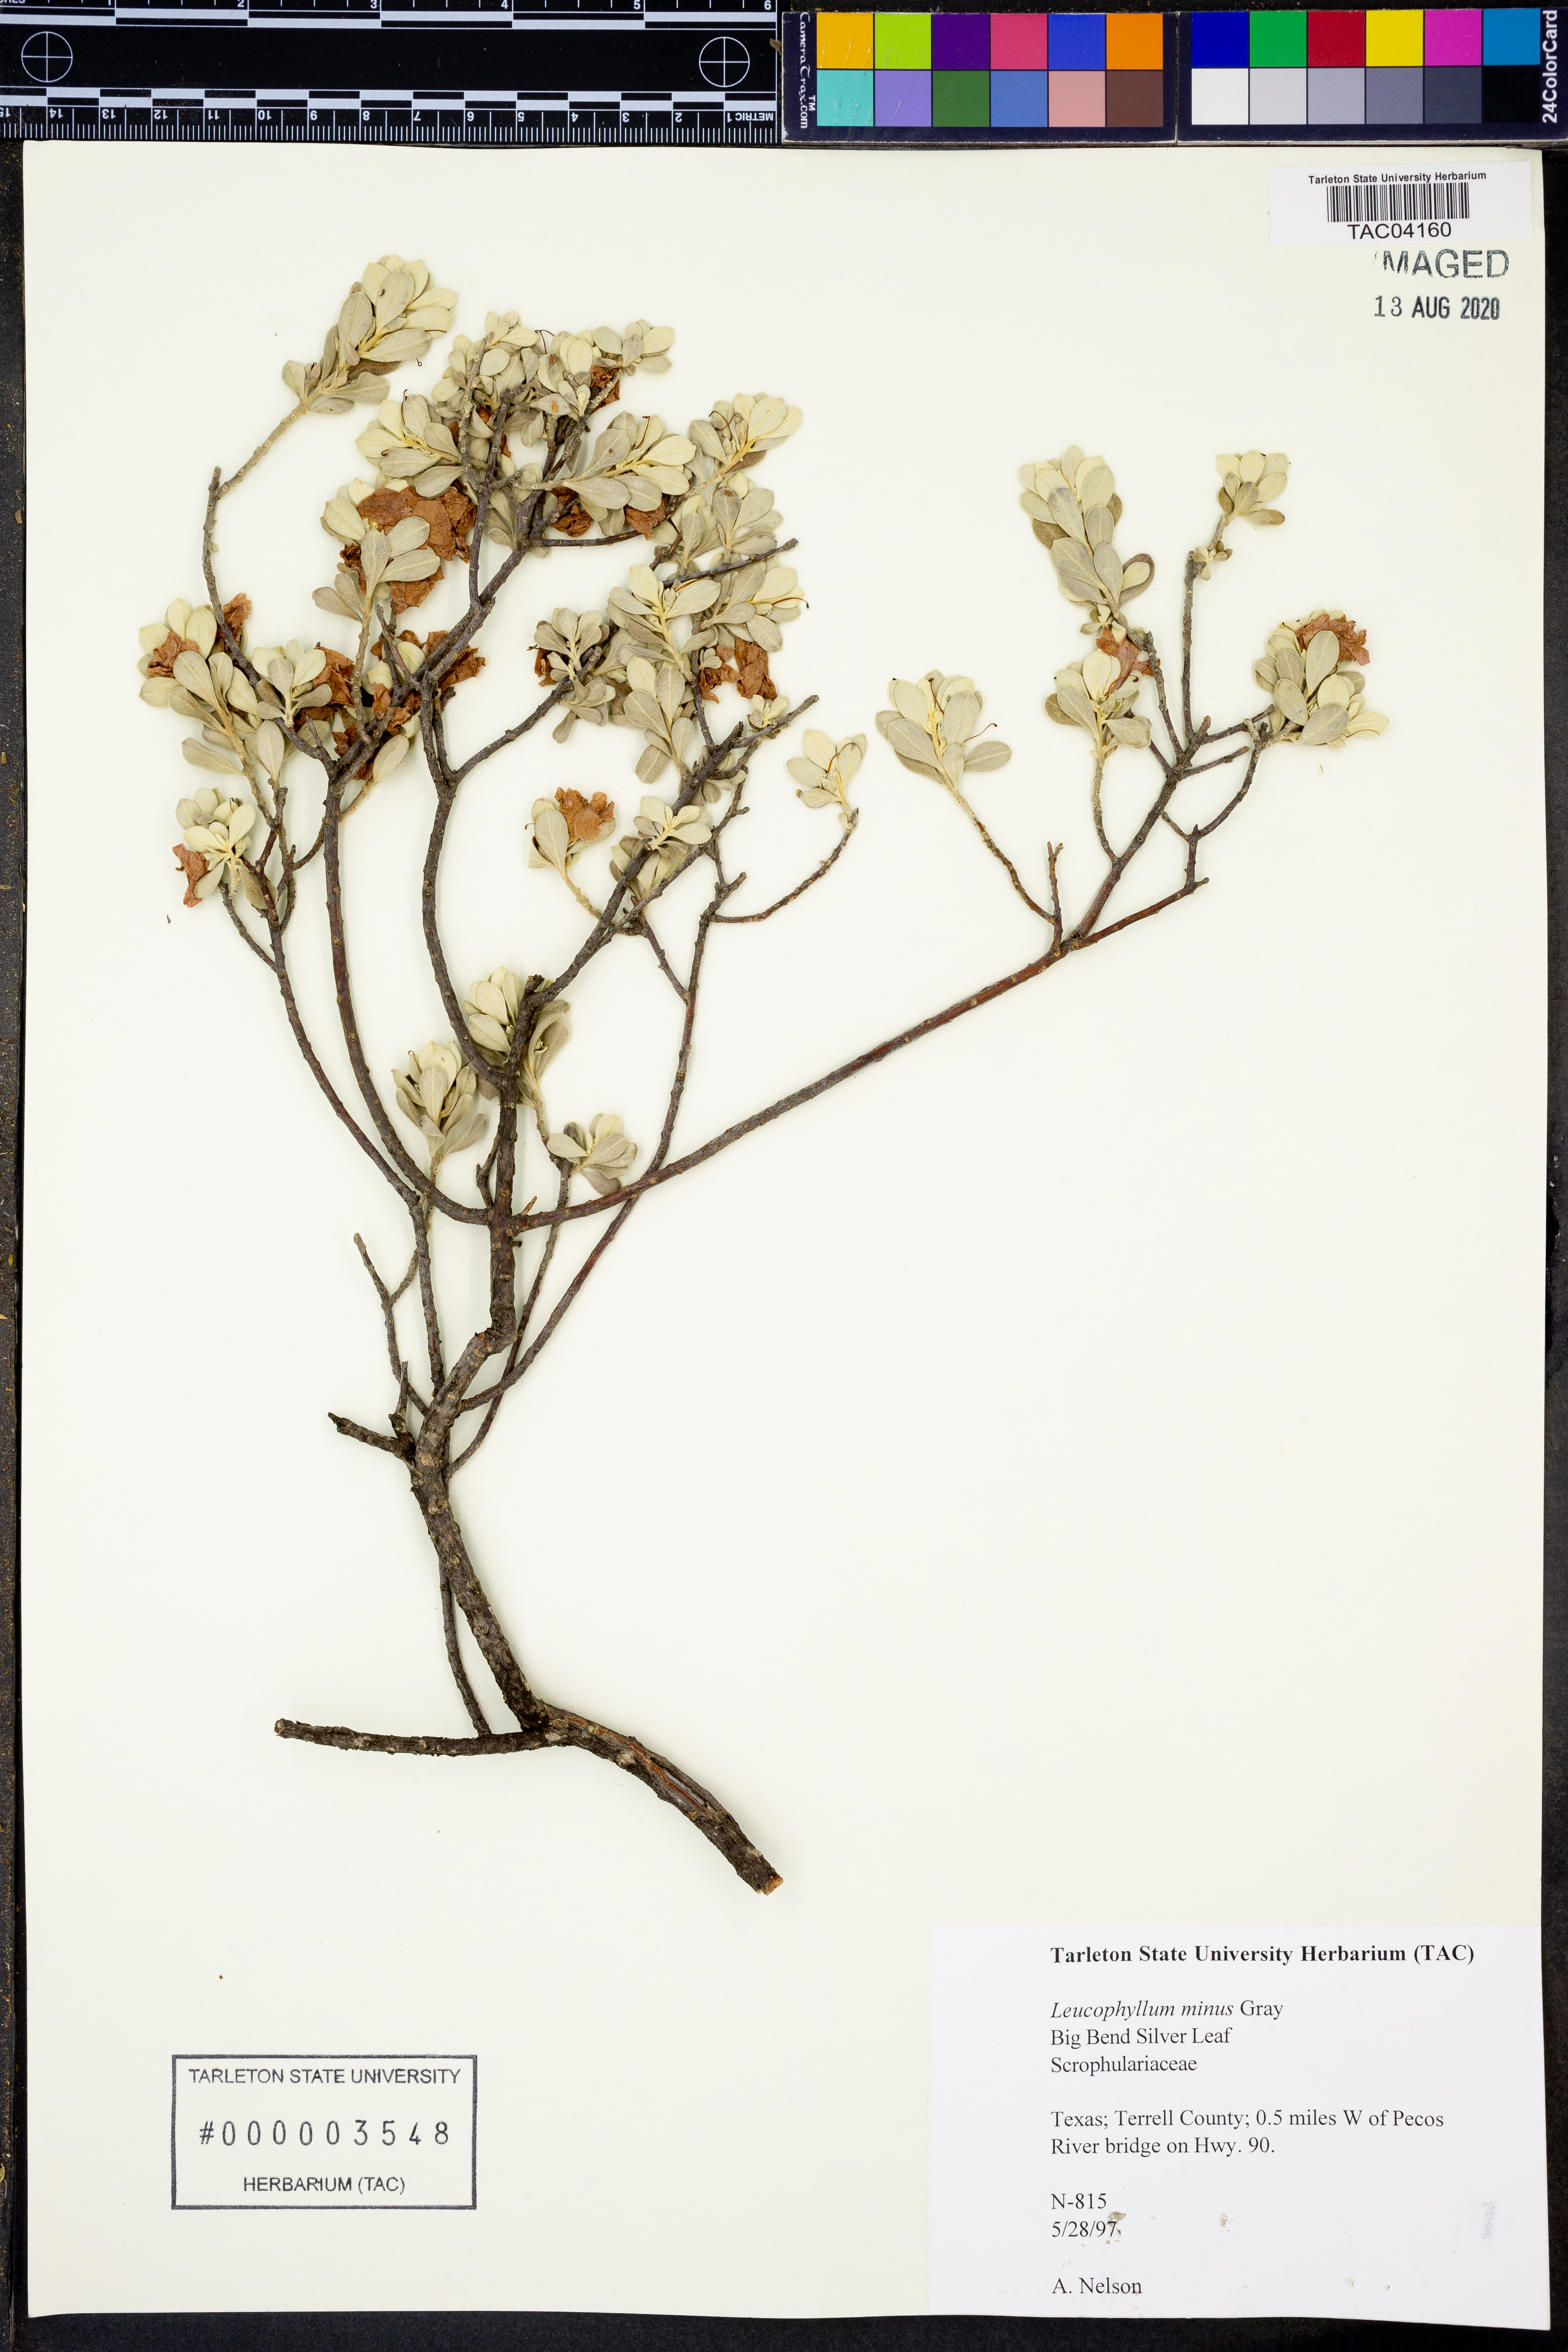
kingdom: Plantae
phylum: Tracheophyta
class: Magnoliopsida
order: Lamiales
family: Scrophulariaceae
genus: Leucophyllum
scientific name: Leucophyllum minus
